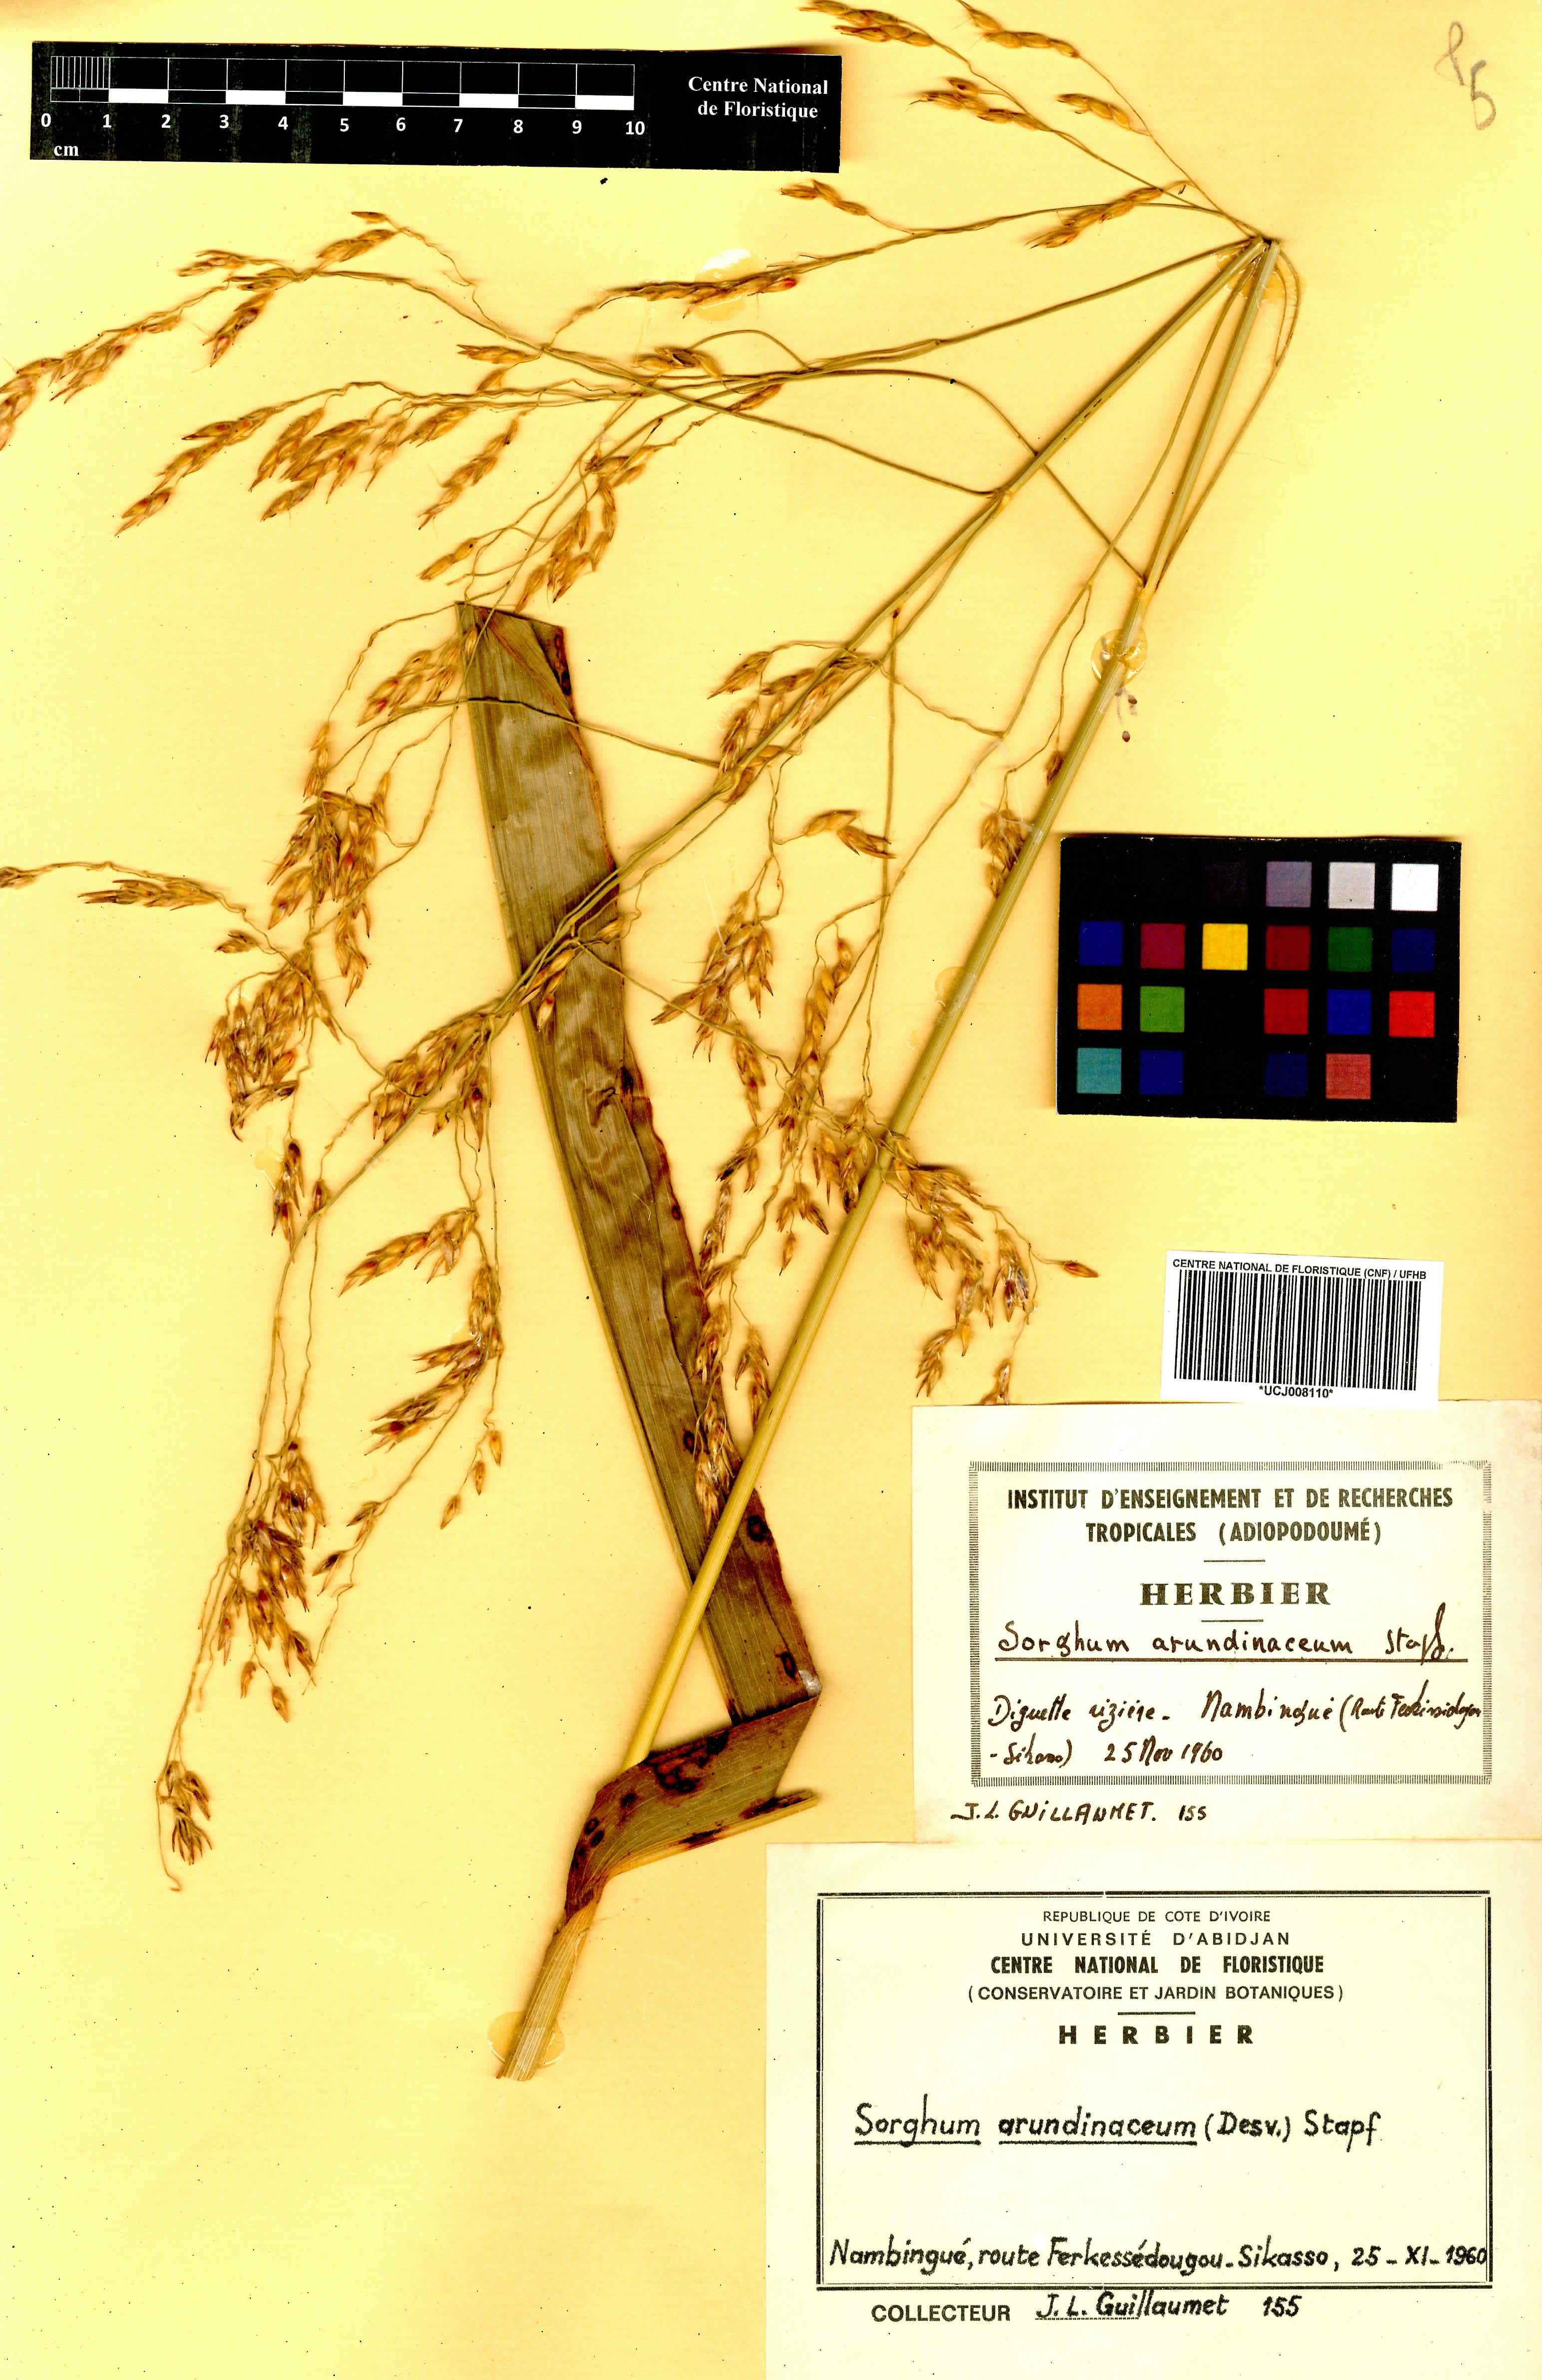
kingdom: Plantae
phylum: Tracheophyta
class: Liliopsida
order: Poales
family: Poaceae
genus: Sorghum
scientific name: Sorghum arundinaceum
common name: Sorghum
